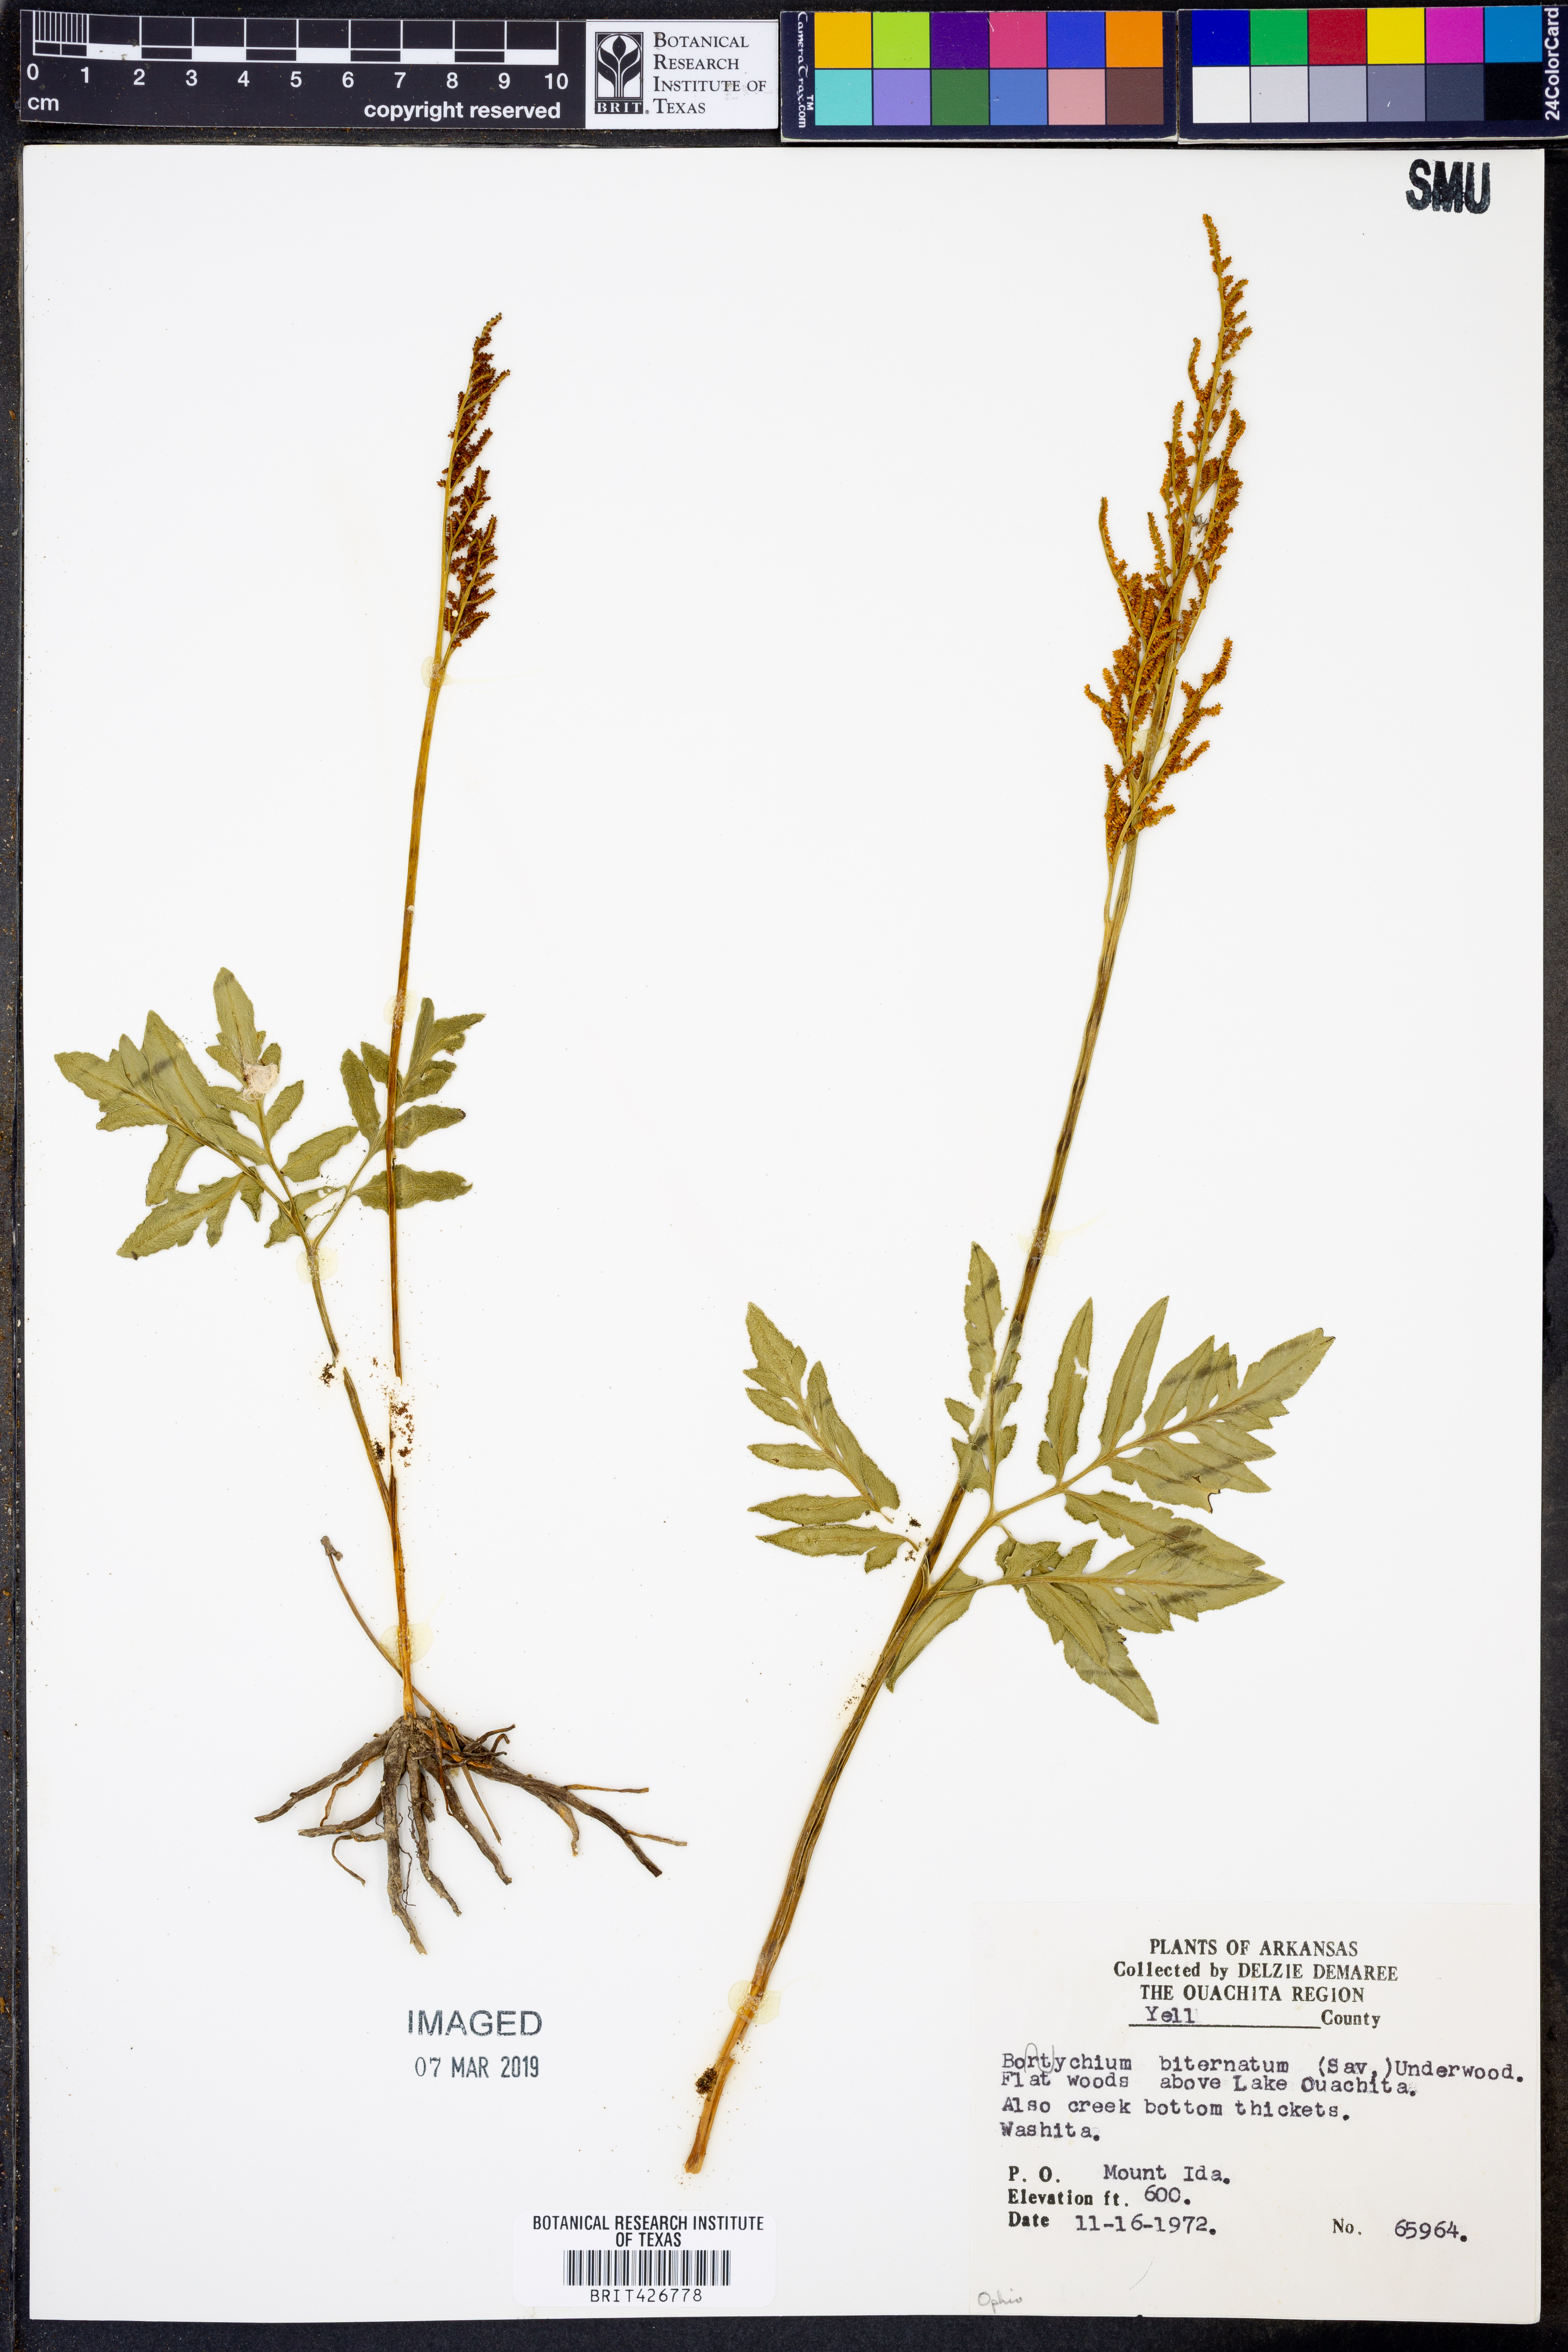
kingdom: Plantae
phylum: Tracheophyta
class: Polypodiopsida
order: Ophioglossales
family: Ophioglossaceae
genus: Sceptridium
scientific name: Sceptridium biternatum
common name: Sparse-lobed grapefern
